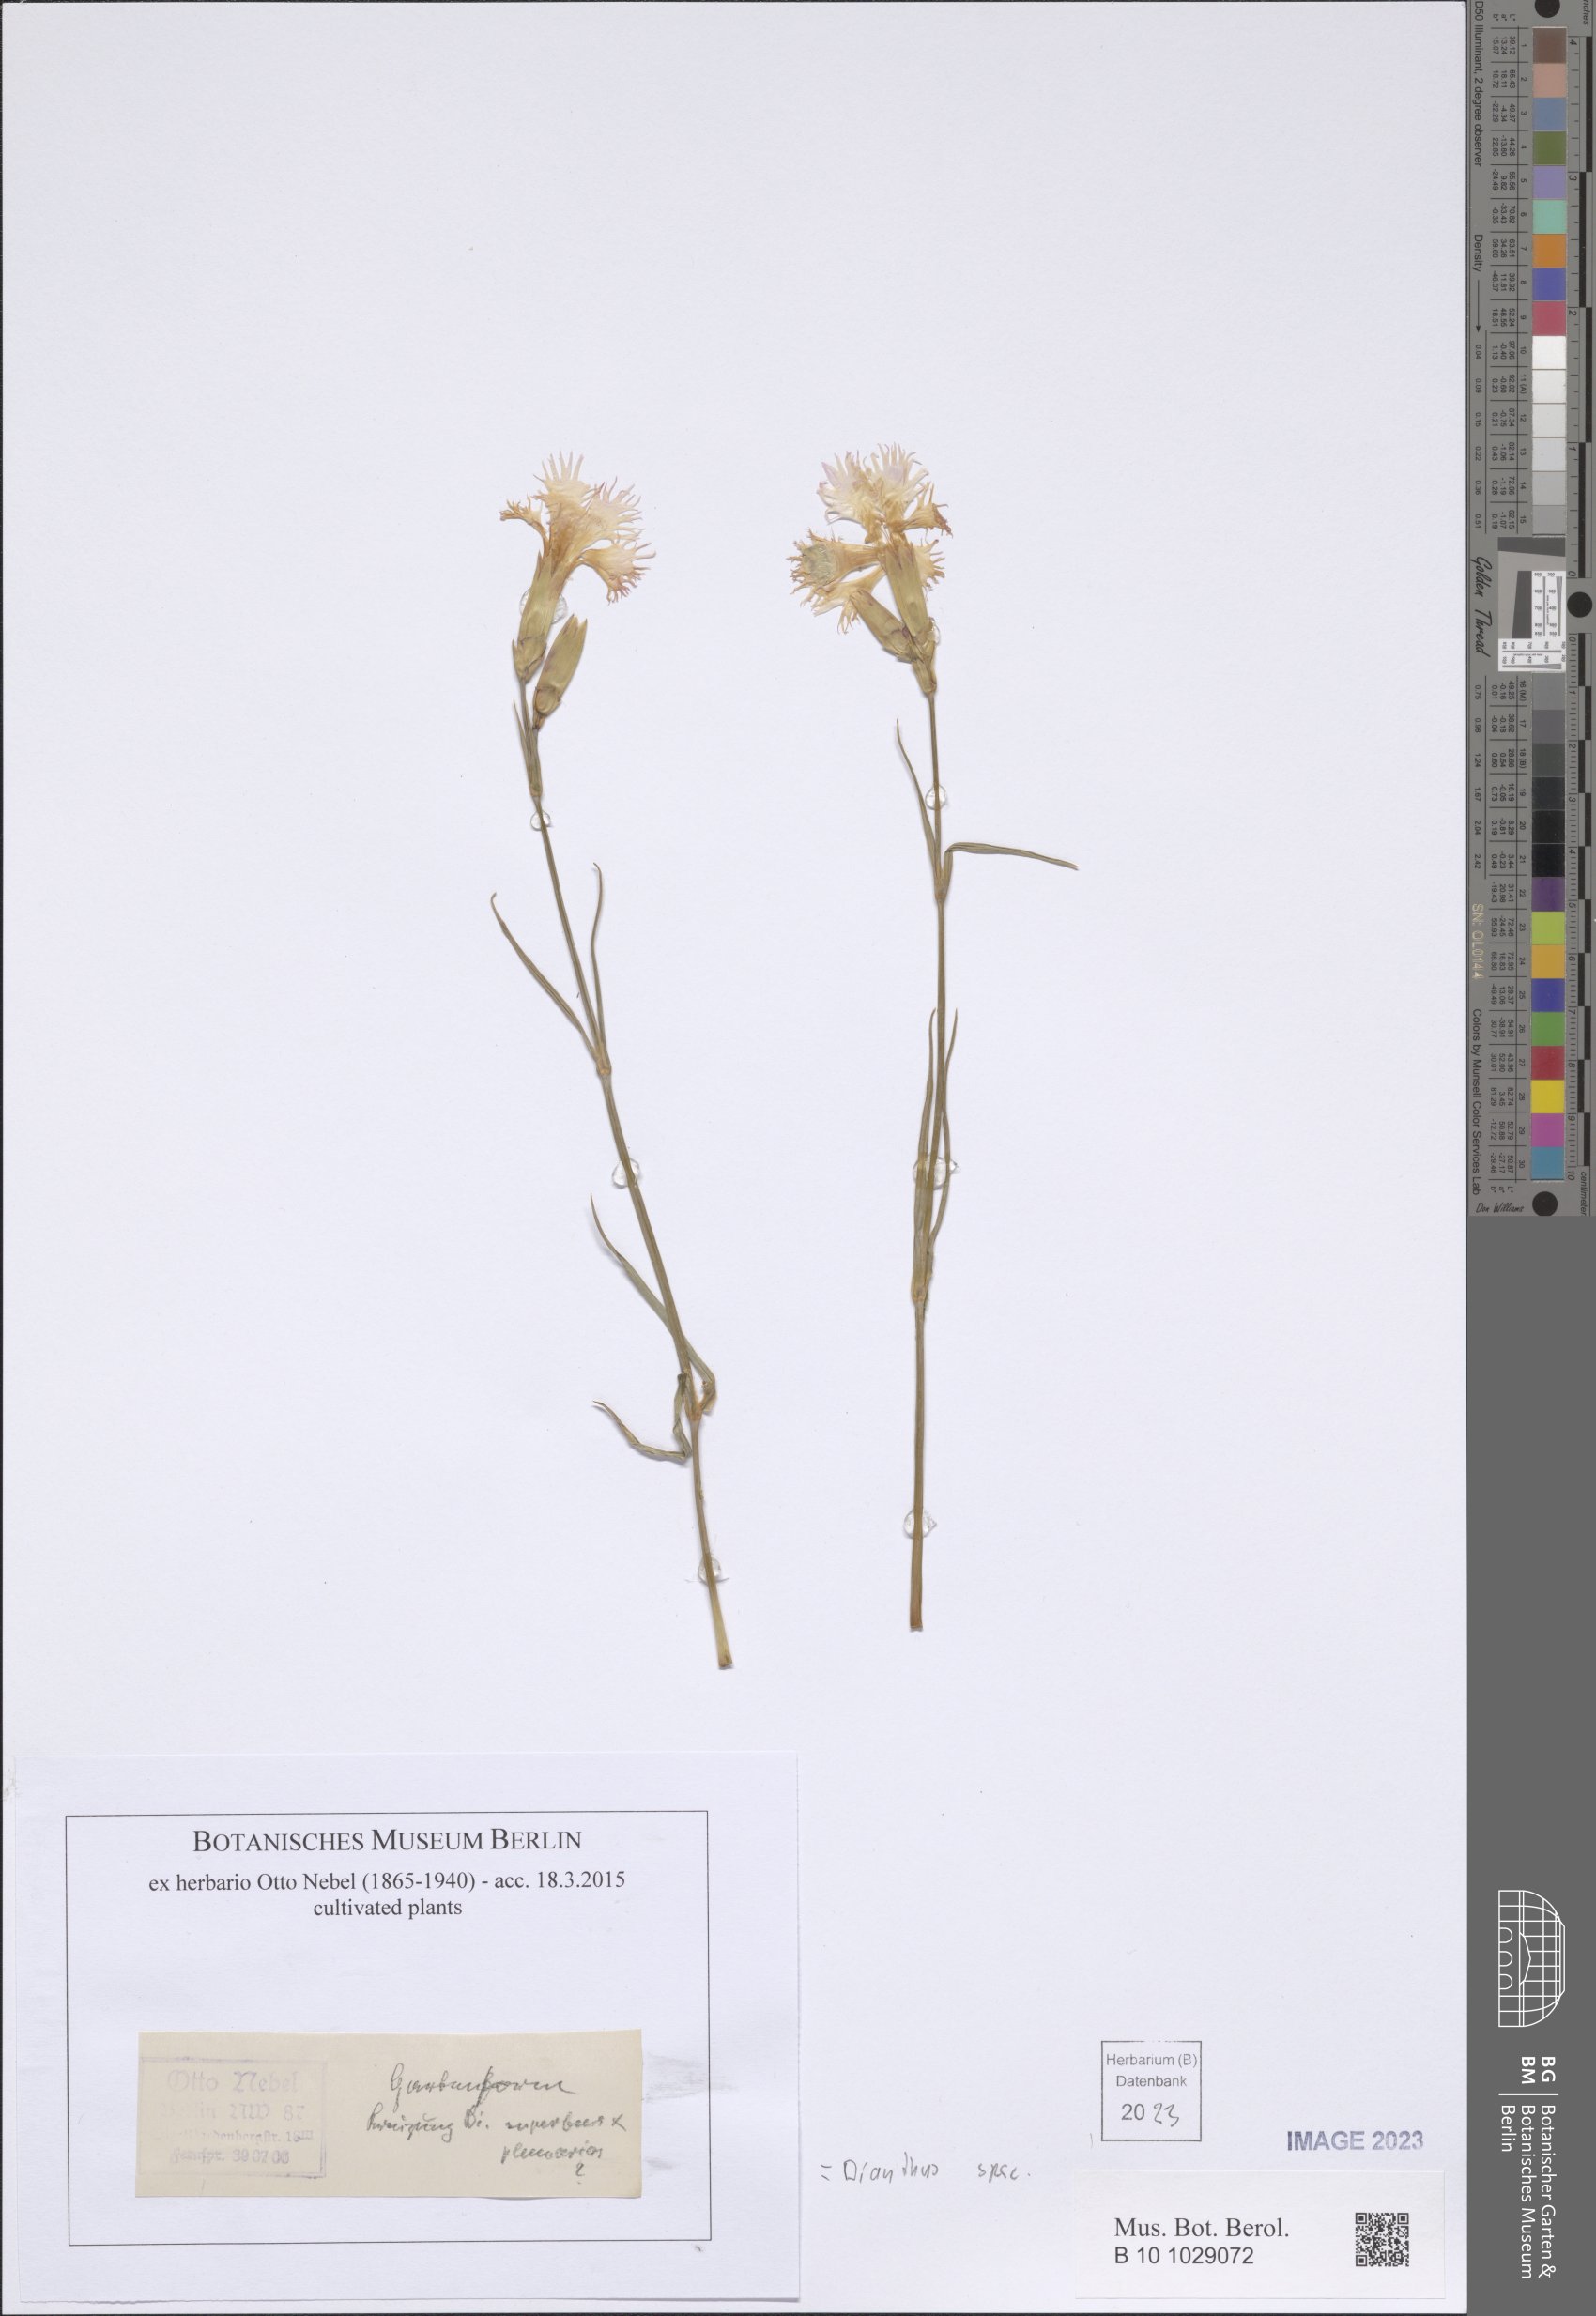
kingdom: Plantae
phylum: Tracheophyta
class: Magnoliopsida
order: Caryophyllales
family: Caryophyllaceae
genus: Dianthus
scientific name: Dianthus
